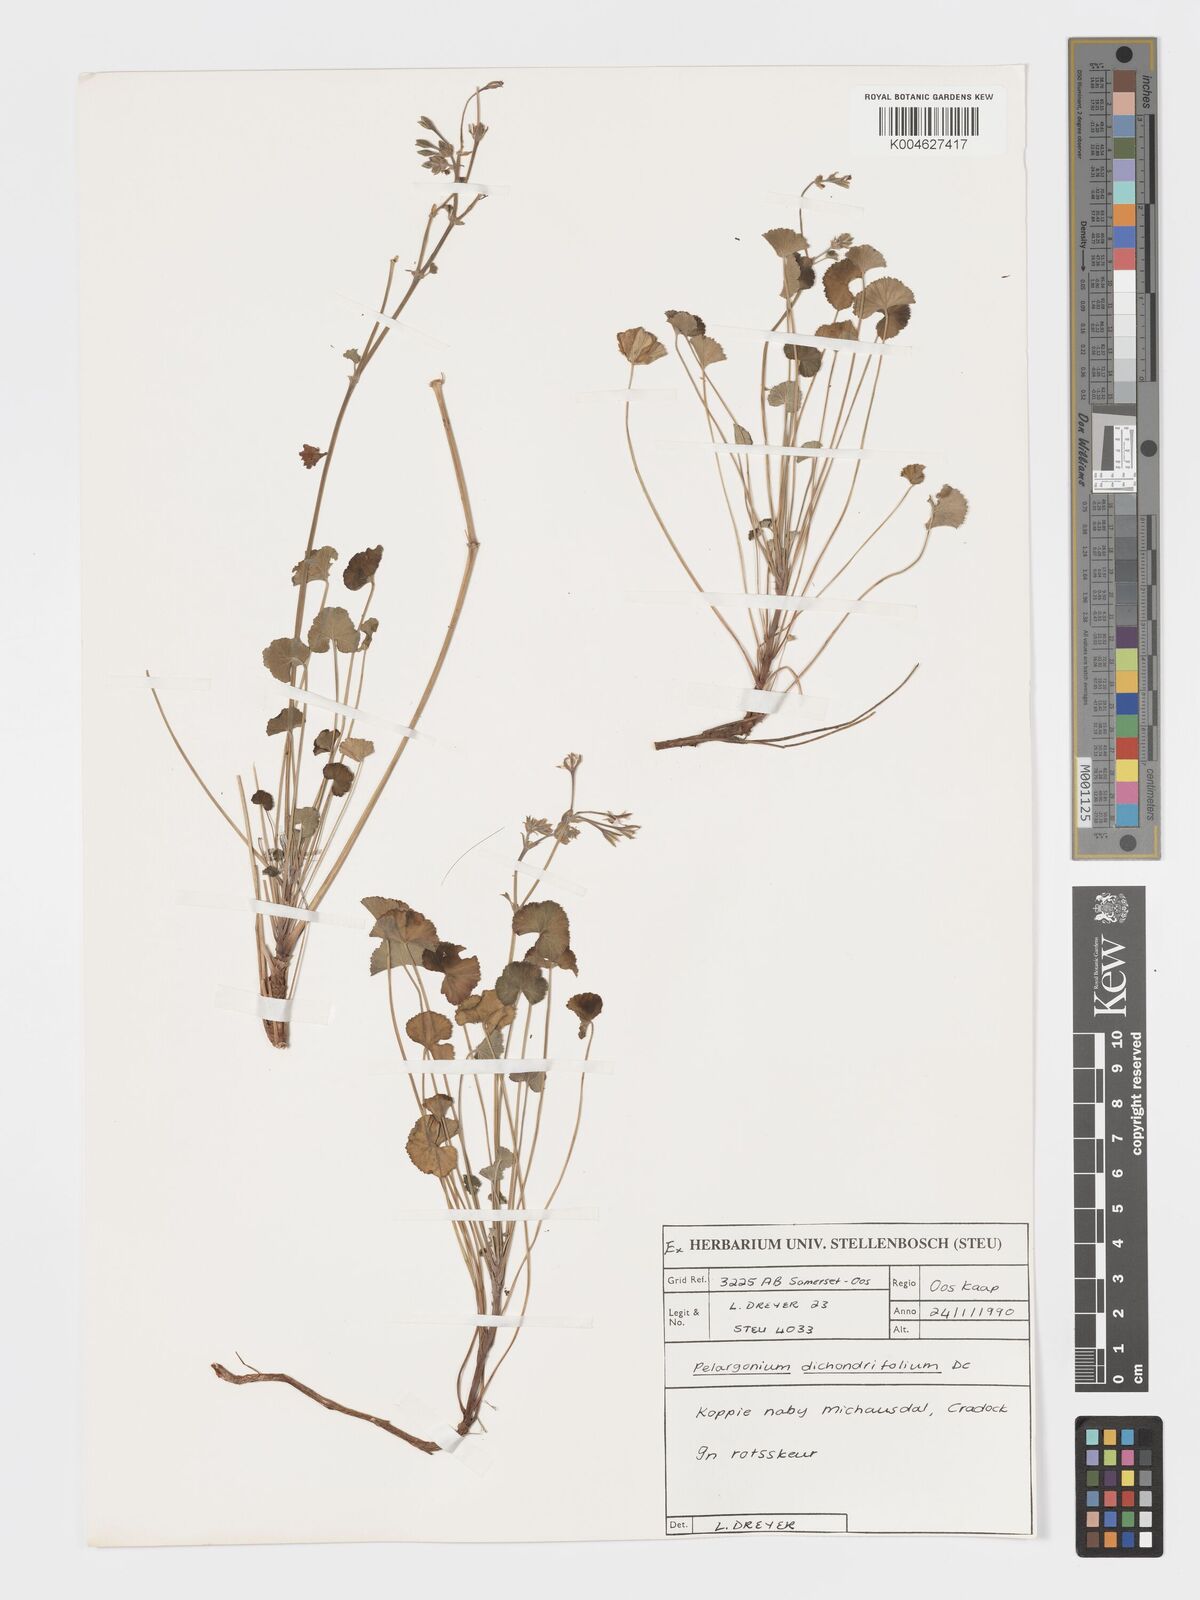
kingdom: Plantae
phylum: Tracheophyta
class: Magnoliopsida
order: Geraniales
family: Geraniaceae
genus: Pelargonium
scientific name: Pelargonium dichondrifolium
